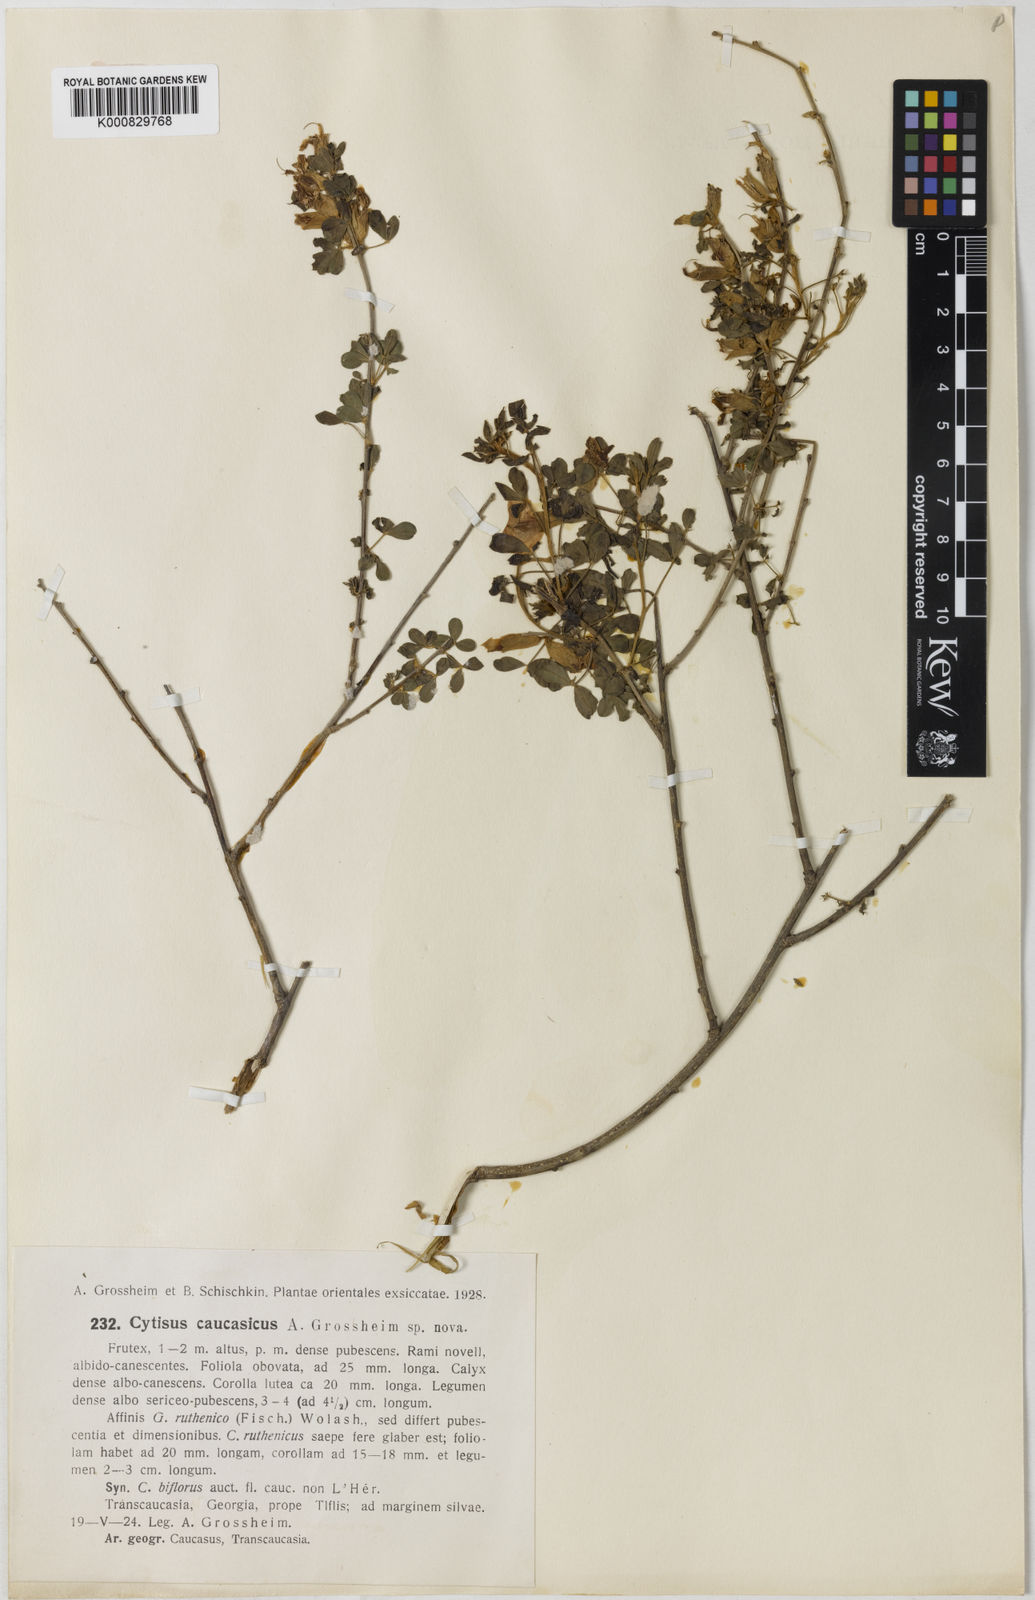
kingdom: Plantae
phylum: Tracheophyta
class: Magnoliopsida
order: Fabales
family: Fabaceae
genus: Cytisus
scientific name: Cytisus
